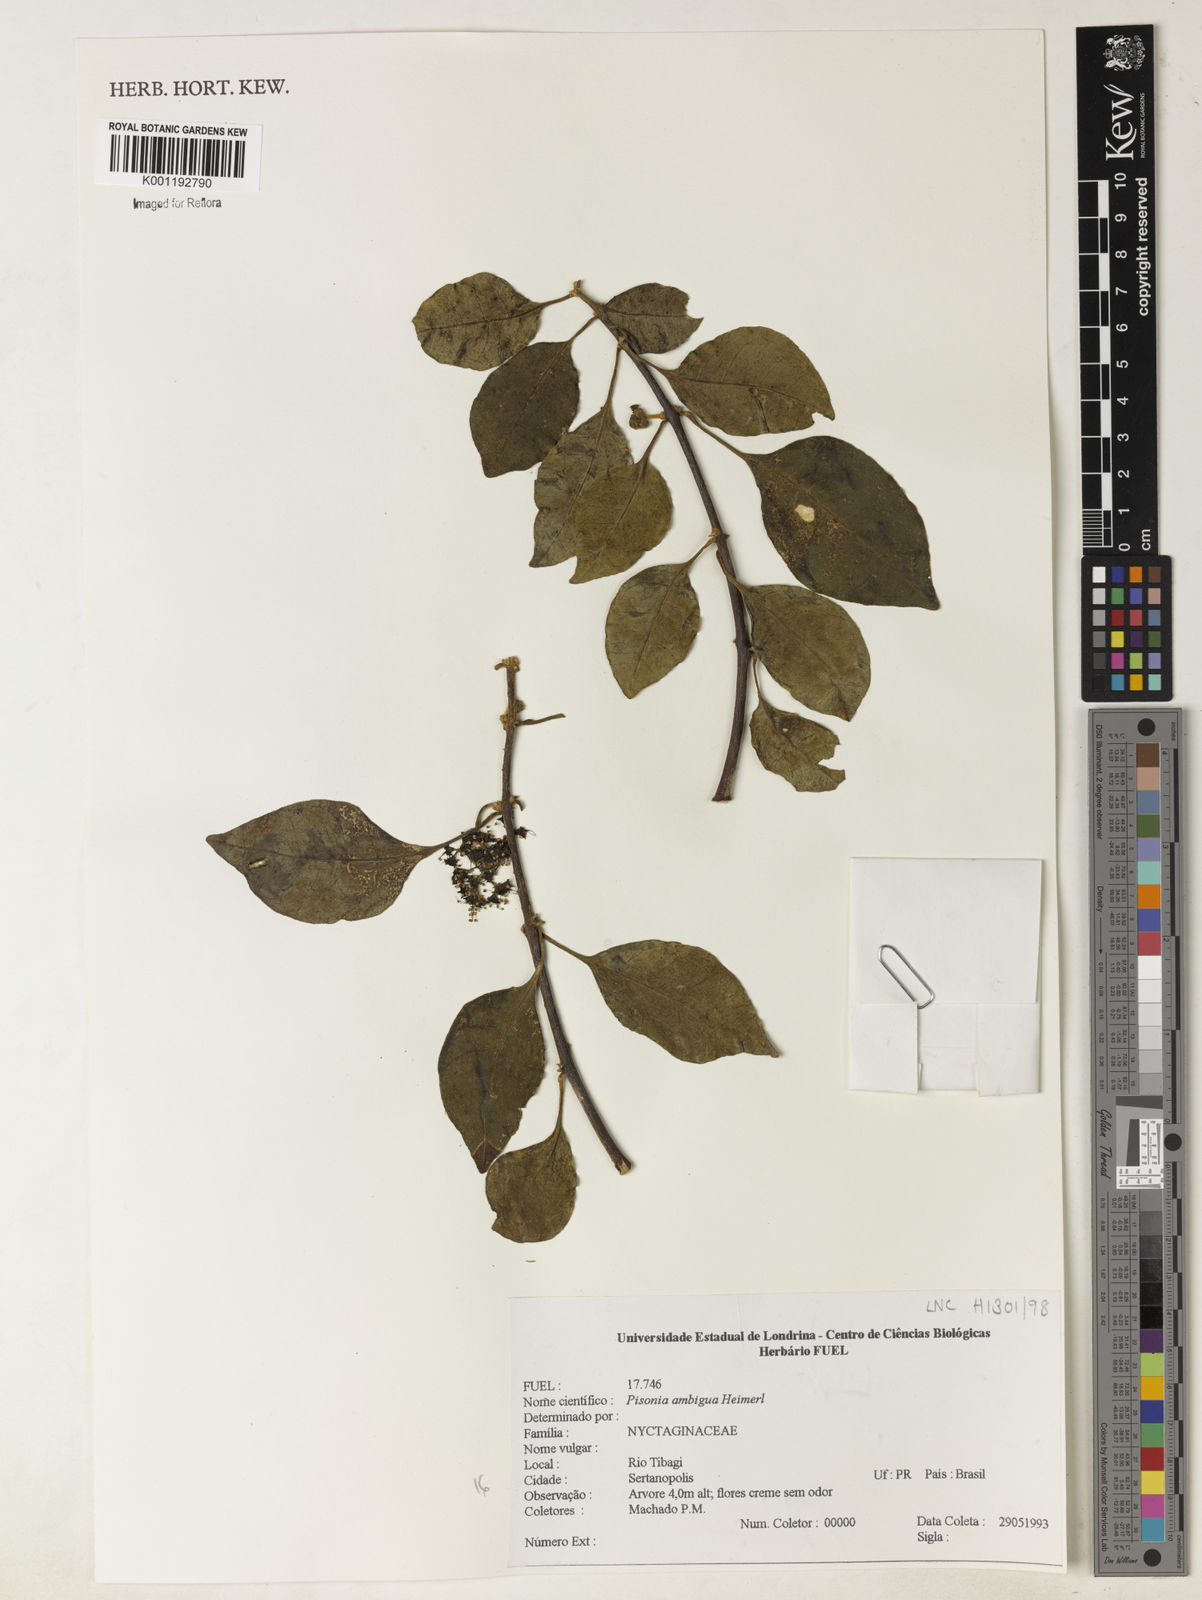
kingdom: Plantae
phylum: Tracheophyta
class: Magnoliopsida
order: Caryophyllales
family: Nyctaginaceae
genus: Pisonia
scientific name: Pisonia ambigua
